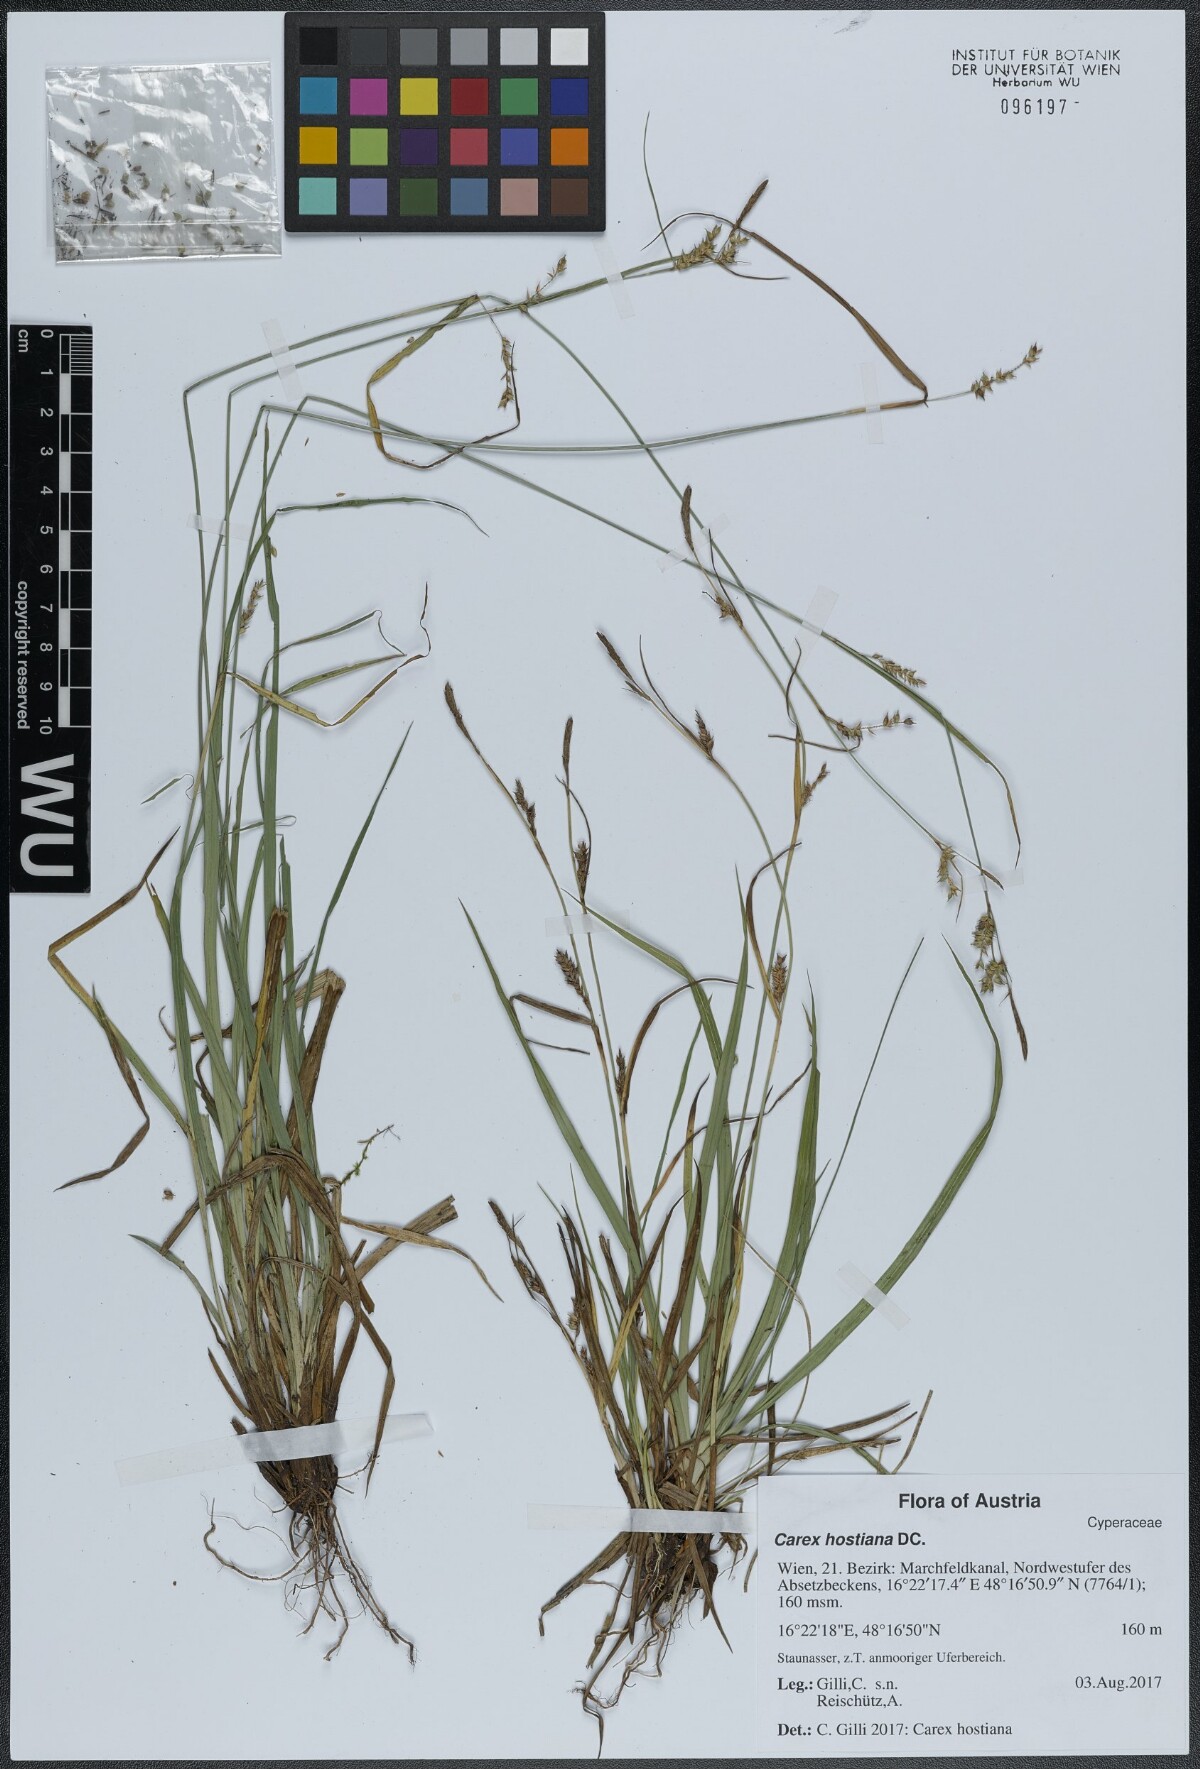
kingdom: Plantae
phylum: Tracheophyta
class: Liliopsida
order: Poales
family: Cyperaceae
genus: Carex
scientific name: Carex punctata
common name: Dotted sedge
